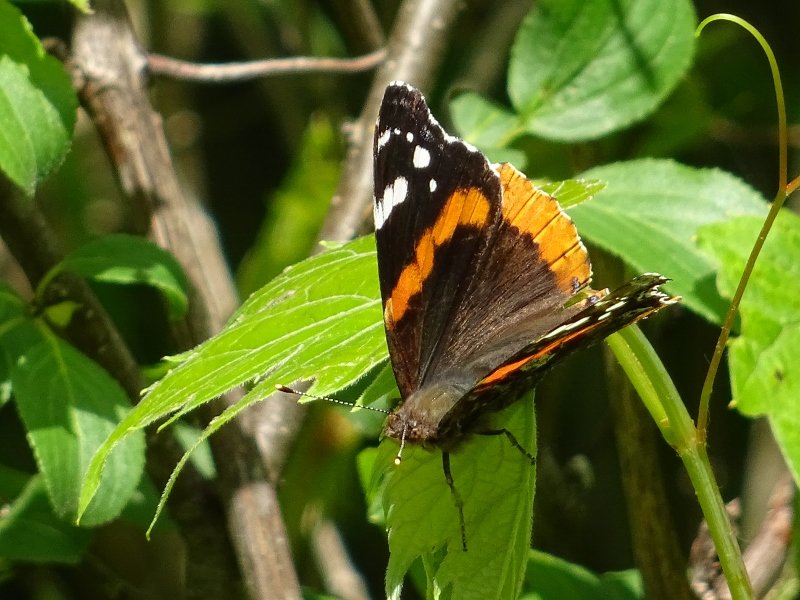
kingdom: Animalia
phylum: Arthropoda
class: Insecta
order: Lepidoptera
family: Nymphalidae
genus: Vanessa
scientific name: Vanessa atalanta
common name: Red Admiral
